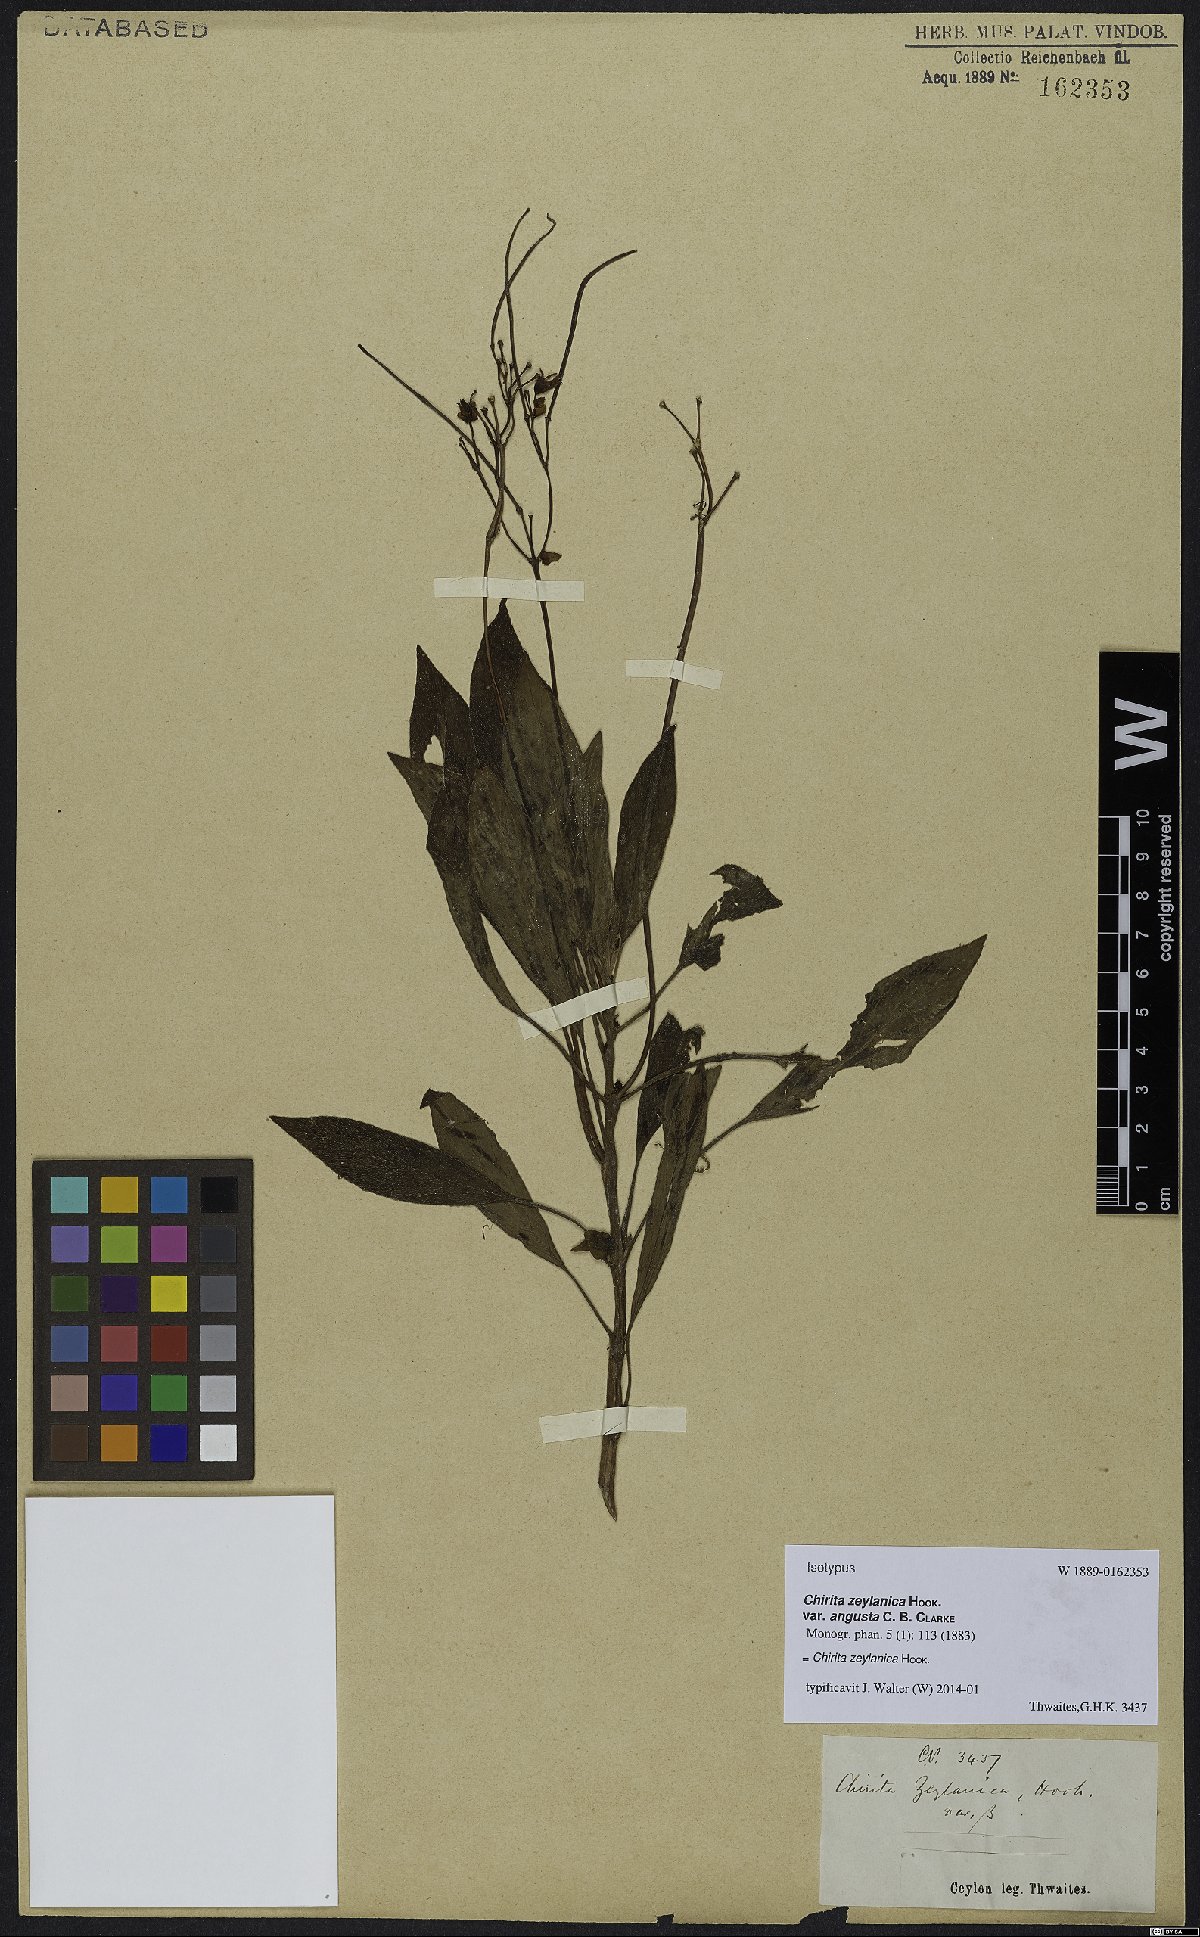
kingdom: Plantae
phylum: Tracheophyta
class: Magnoliopsida
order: Lamiales
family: Gesneriaceae
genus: Henckelia
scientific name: Henckelia communis
